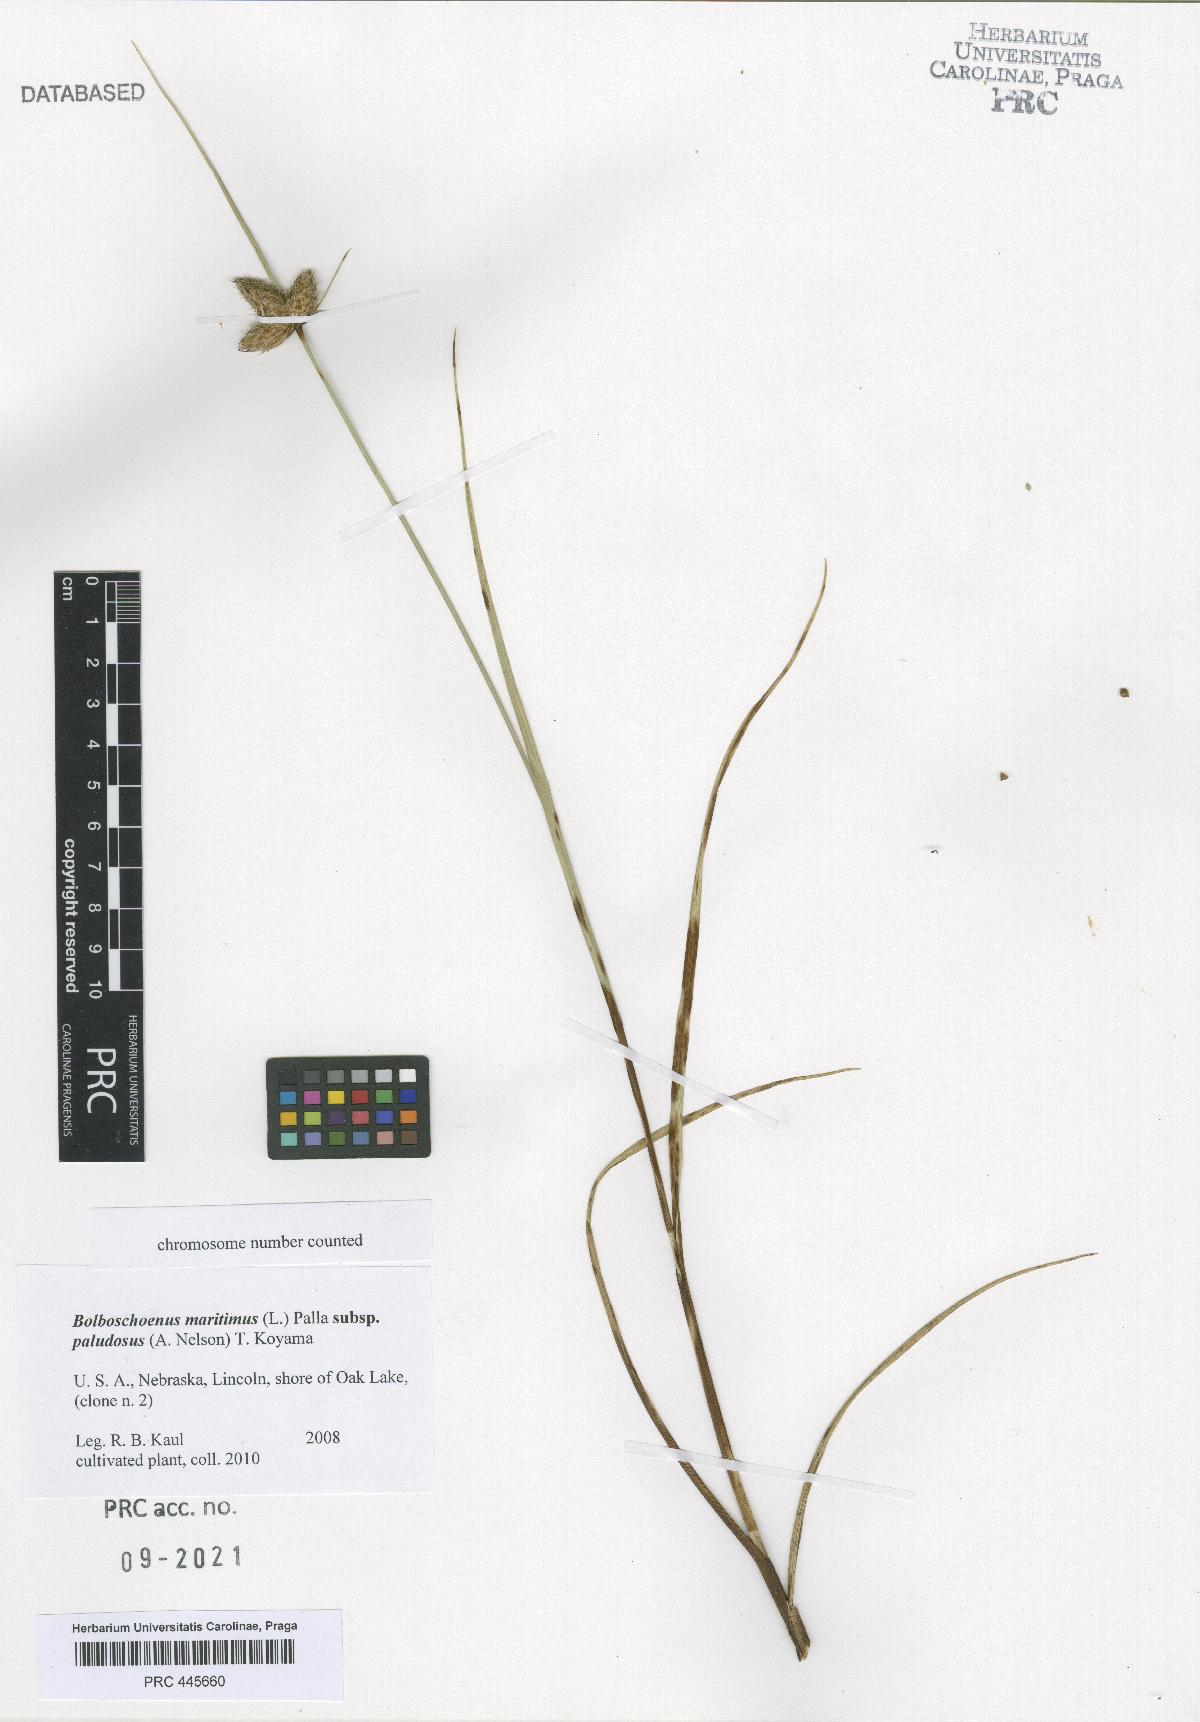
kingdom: Plantae
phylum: Tracheophyta
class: Liliopsida
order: Poales
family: Cyperaceae
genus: Bolboschoenus
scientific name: Bolboschoenus maritimus
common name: Sea club-rush
